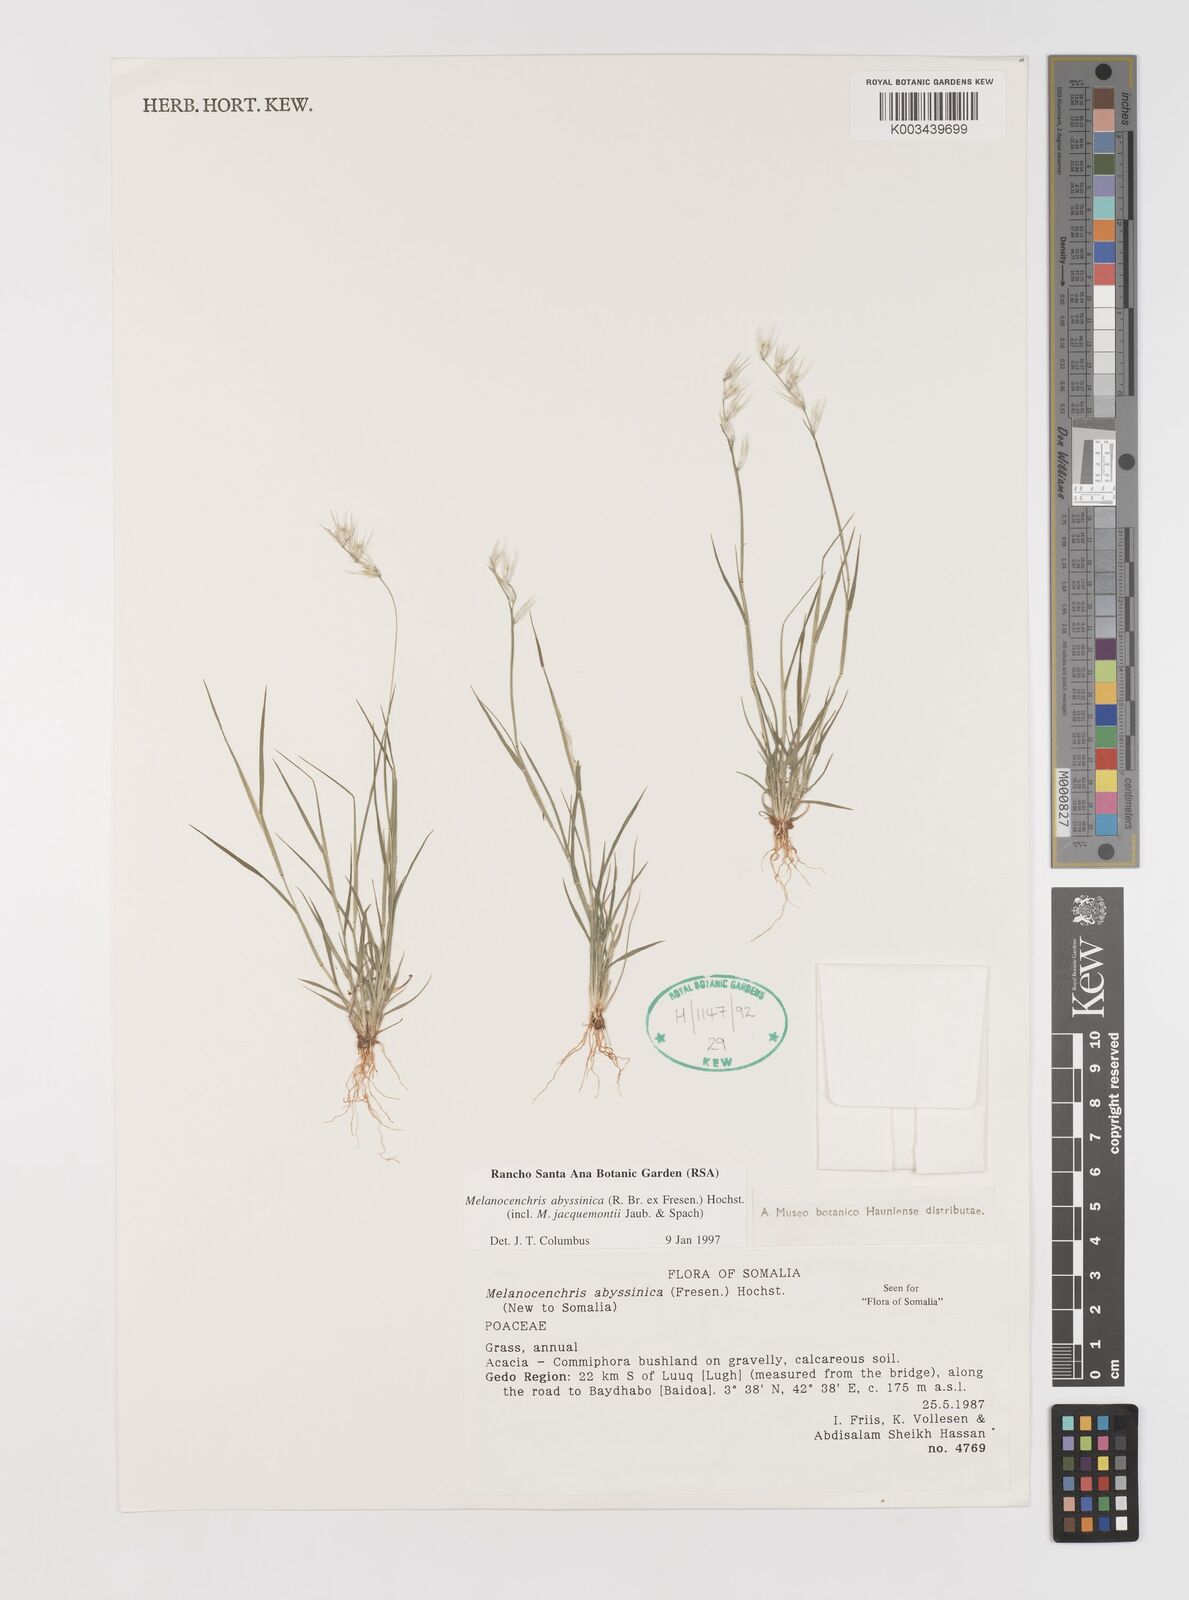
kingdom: Plantae
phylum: Tracheophyta
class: Liliopsida
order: Poales
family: Poaceae
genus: Melanocenchris
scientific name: Melanocenchris abyssinica
